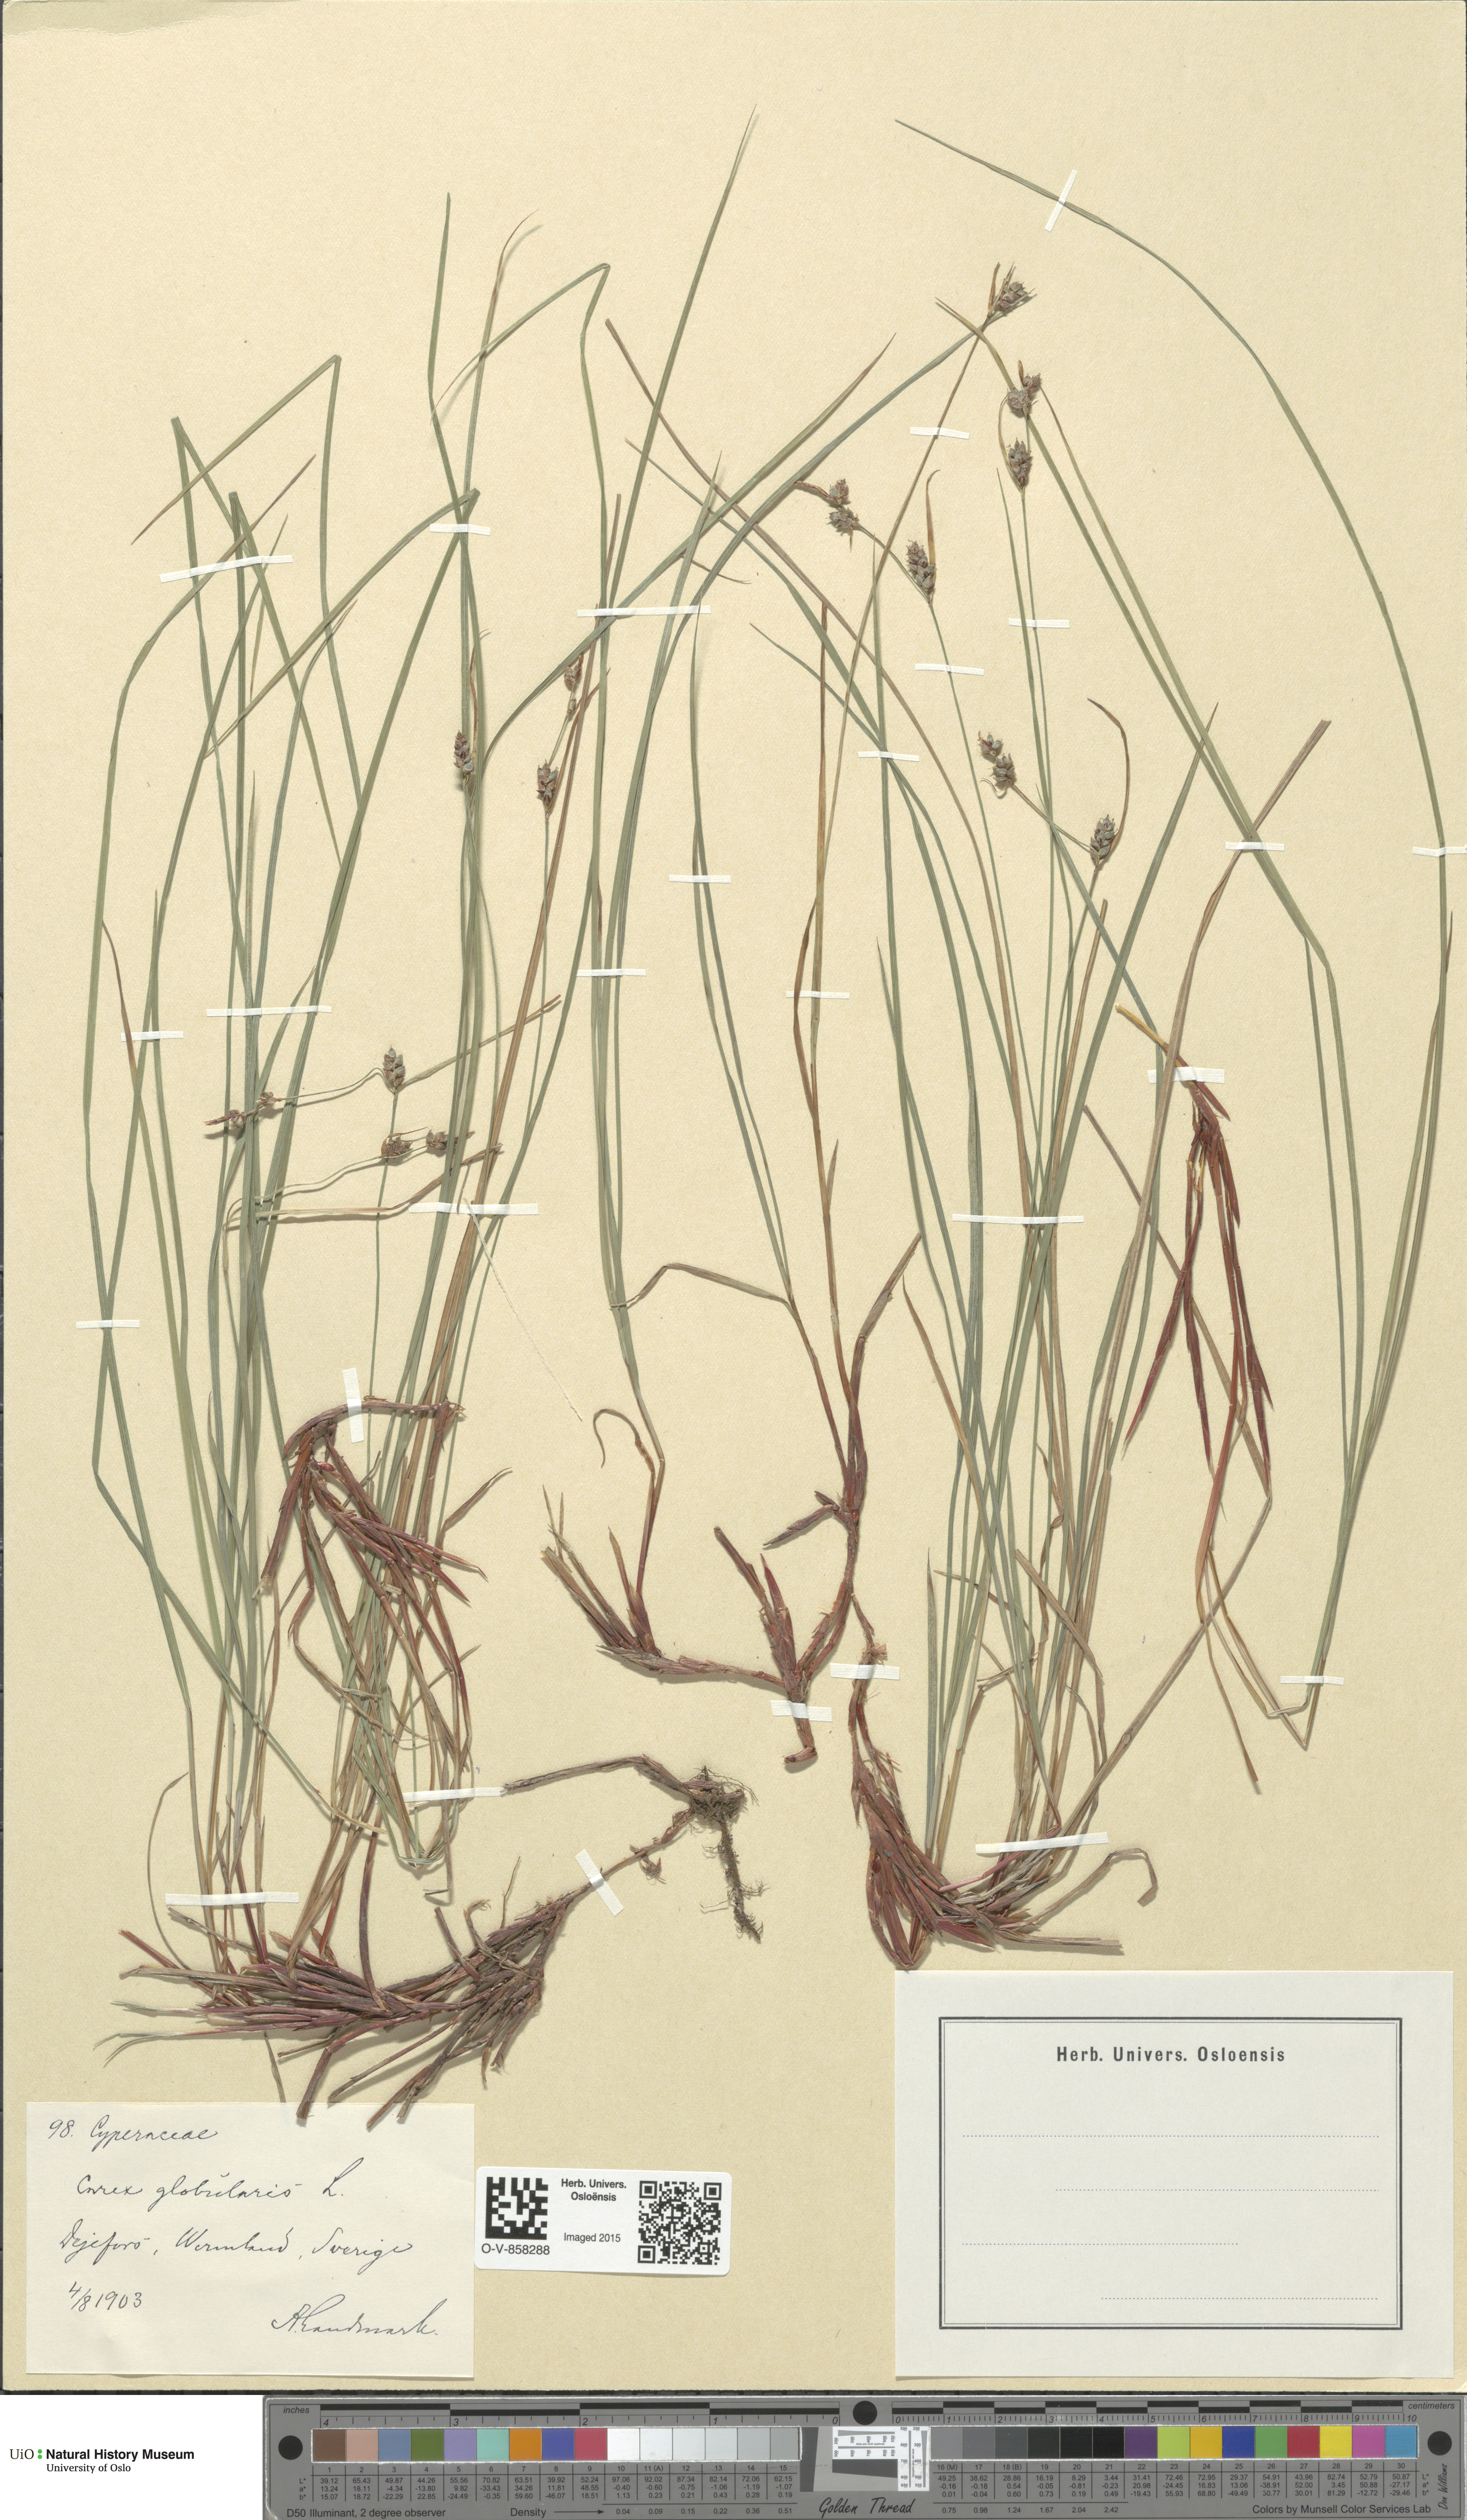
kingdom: Plantae
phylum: Tracheophyta
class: Liliopsida
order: Poales
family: Cyperaceae
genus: Carex
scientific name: Carex globularis
